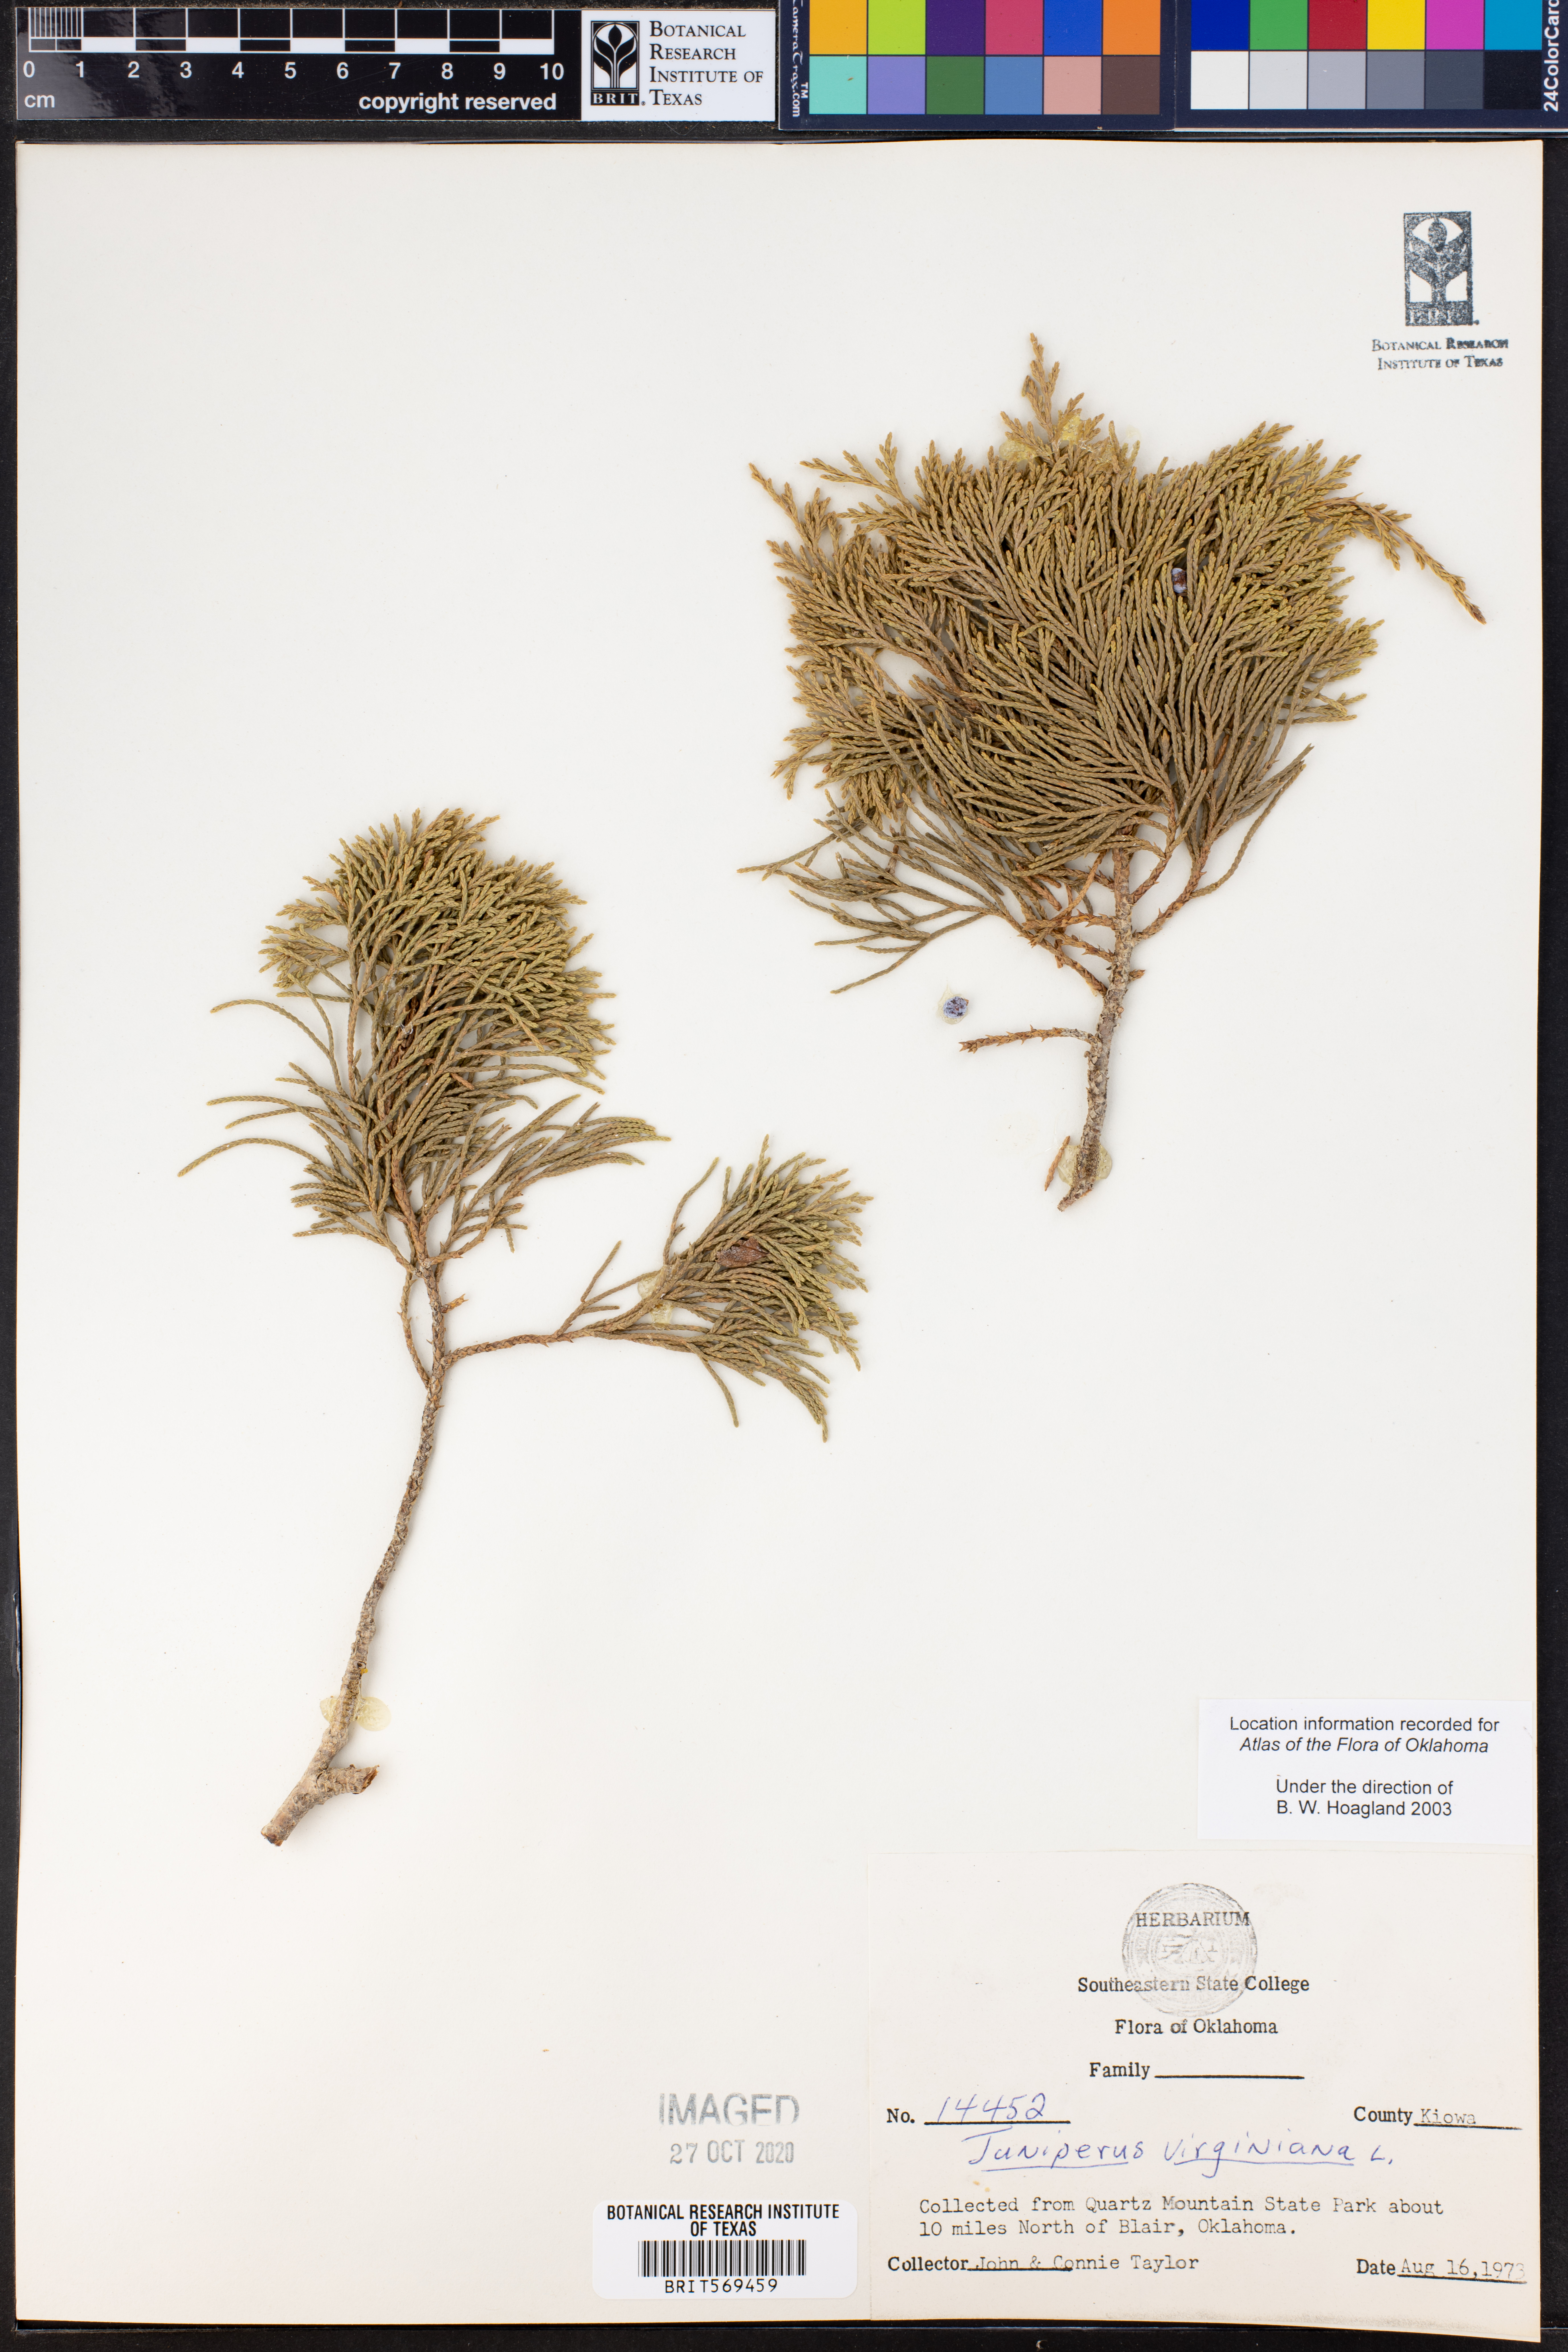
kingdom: Plantae
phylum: Tracheophyta
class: Pinopsida
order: Pinales
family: Cupressaceae
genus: Juniperus
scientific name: Juniperus virginiana
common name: Red juniper
